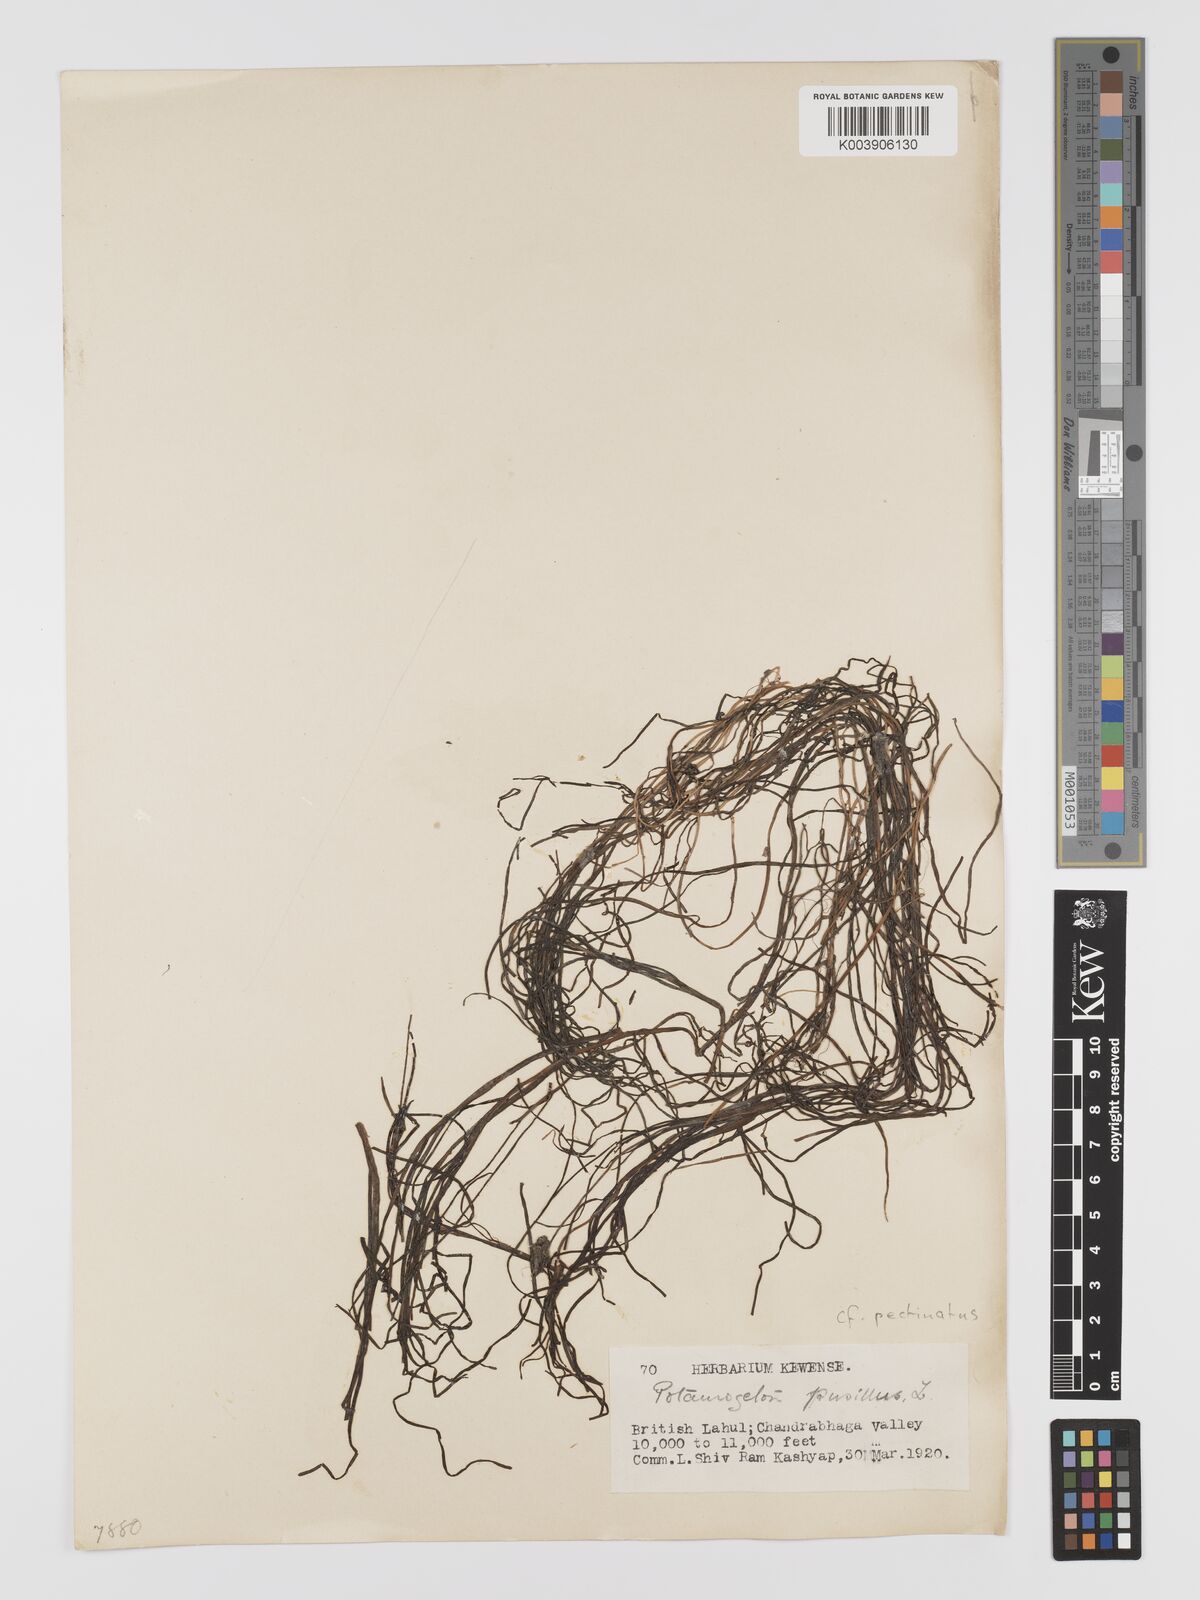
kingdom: Plantae
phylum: Tracheophyta
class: Liliopsida
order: Alismatales
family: Potamogetonaceae
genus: Stuckenia
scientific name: Stuckenia pectinata
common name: Sago pondweed
